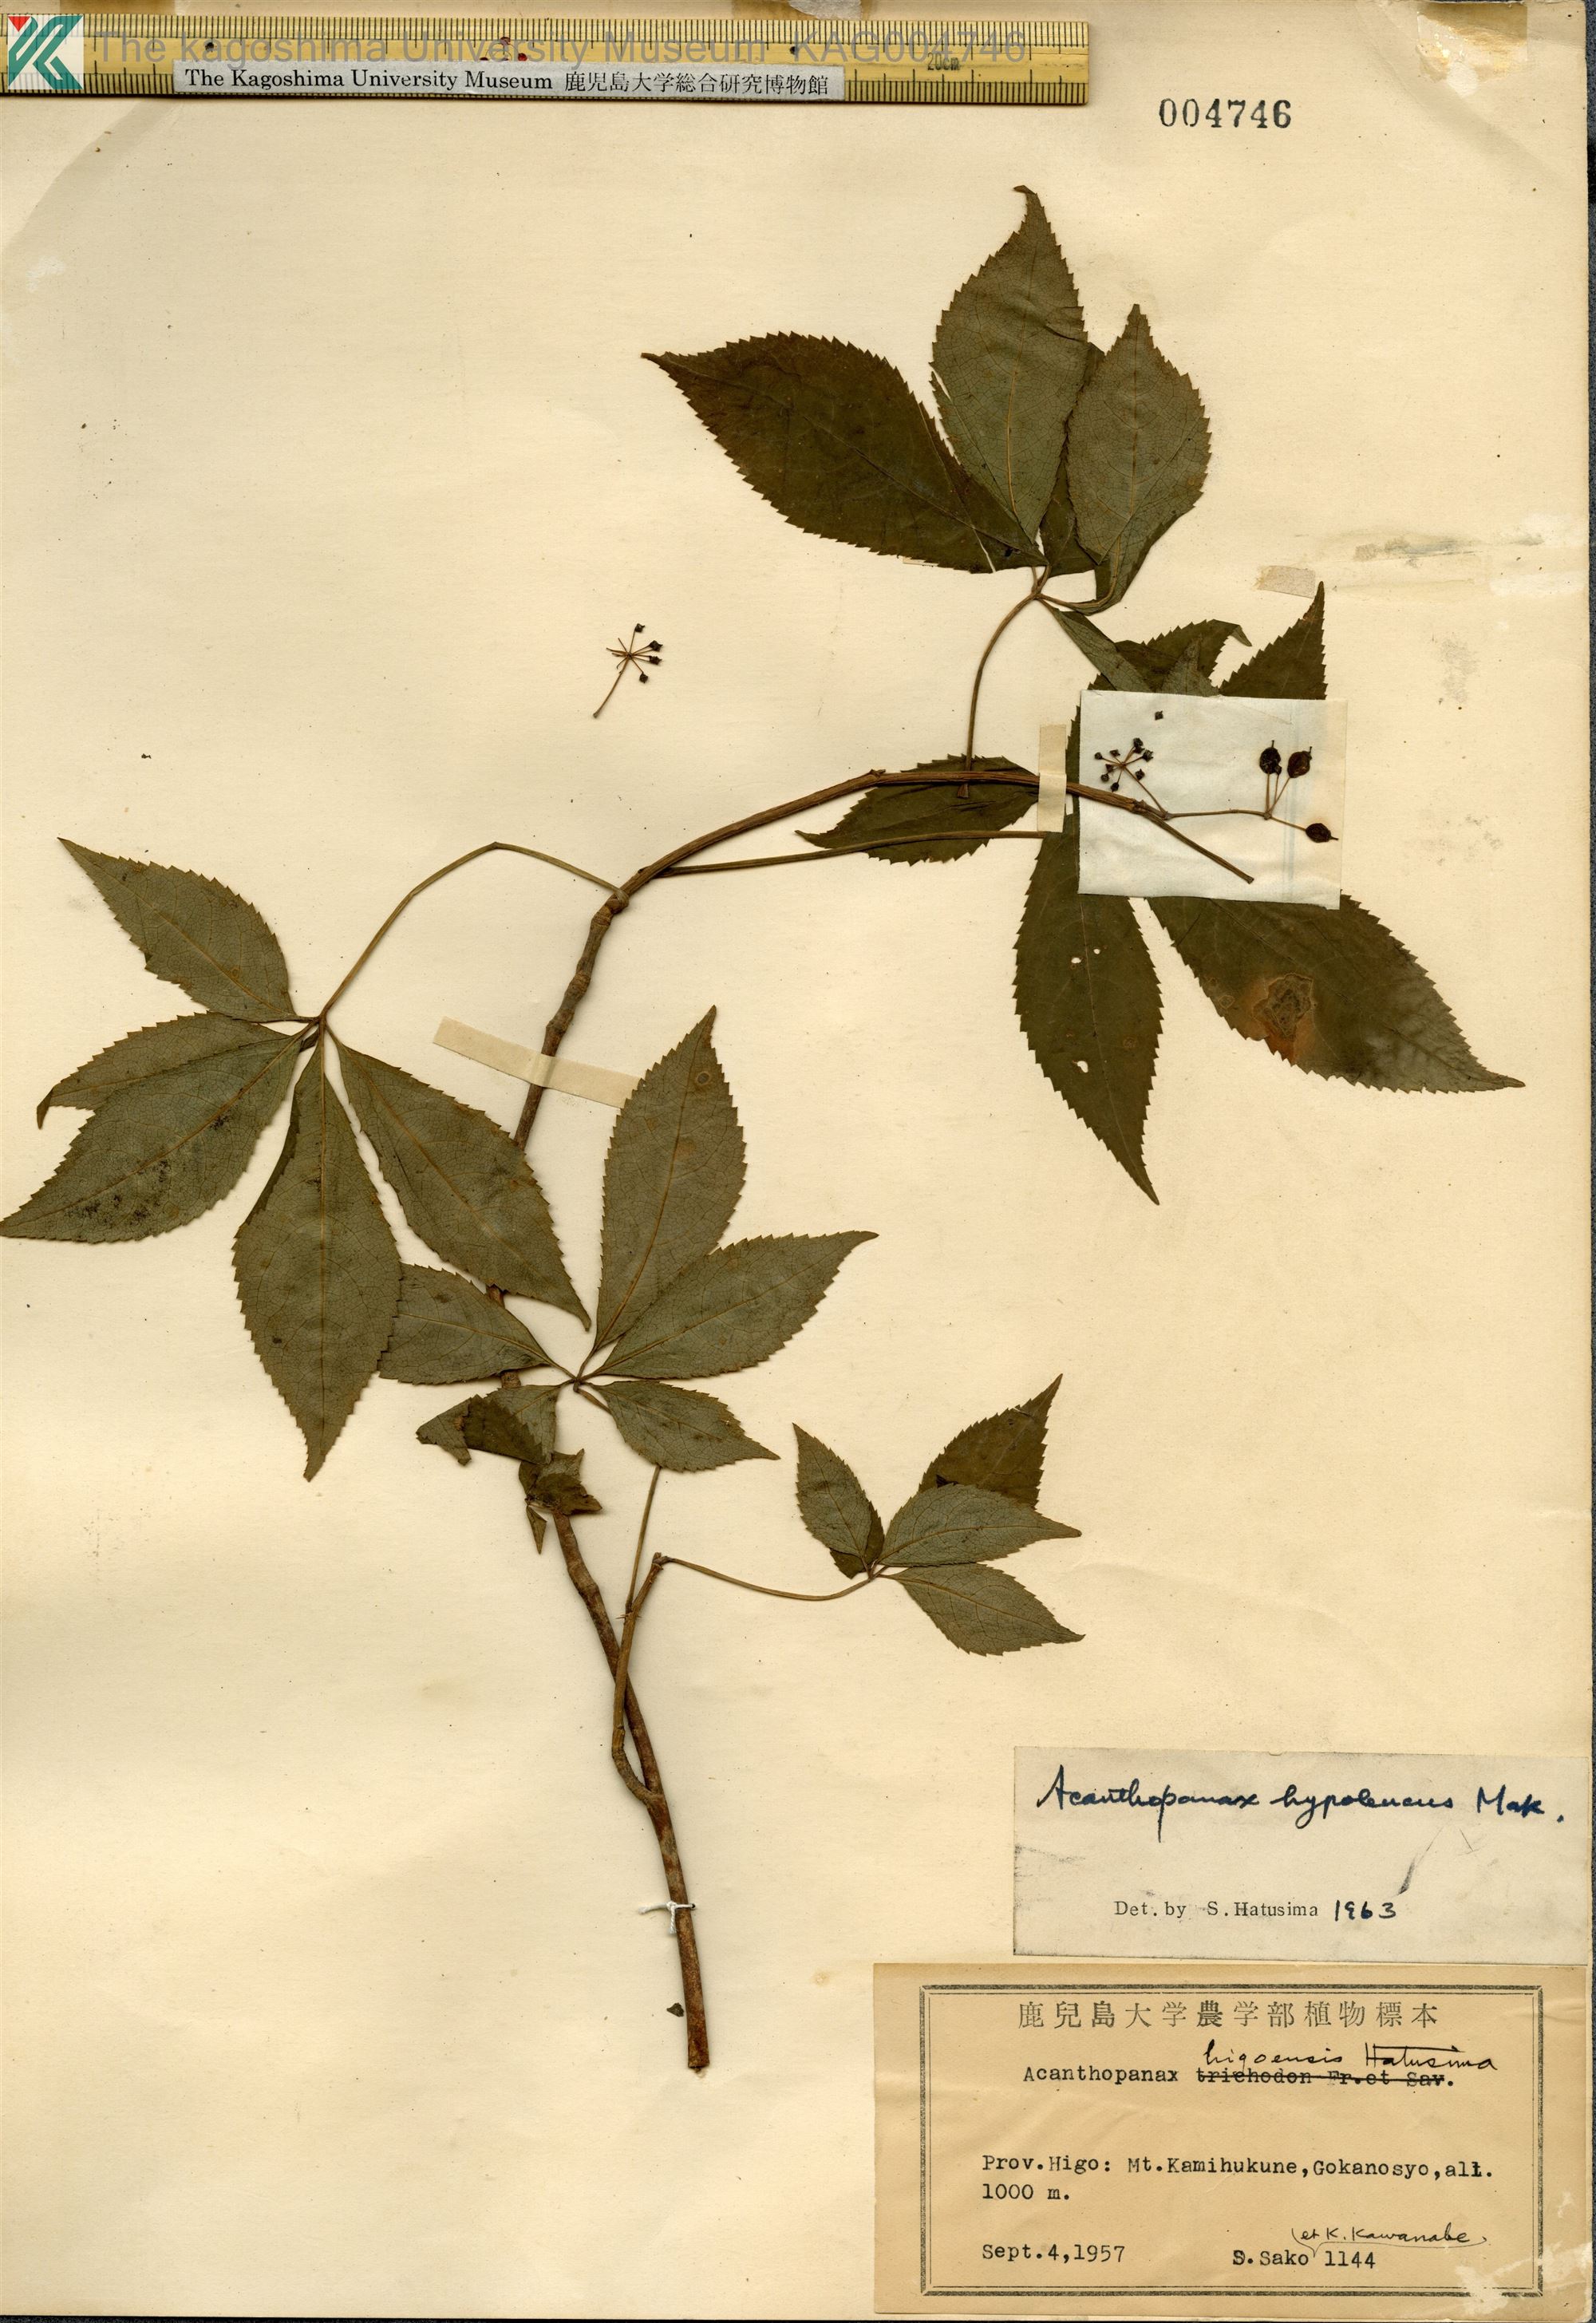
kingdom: Plantae
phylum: Tracheophyta
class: Magnoliopsida
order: Apiales
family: Araliaceae
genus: Eleutherococcus
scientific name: Eleutherococcus hypoleucus
